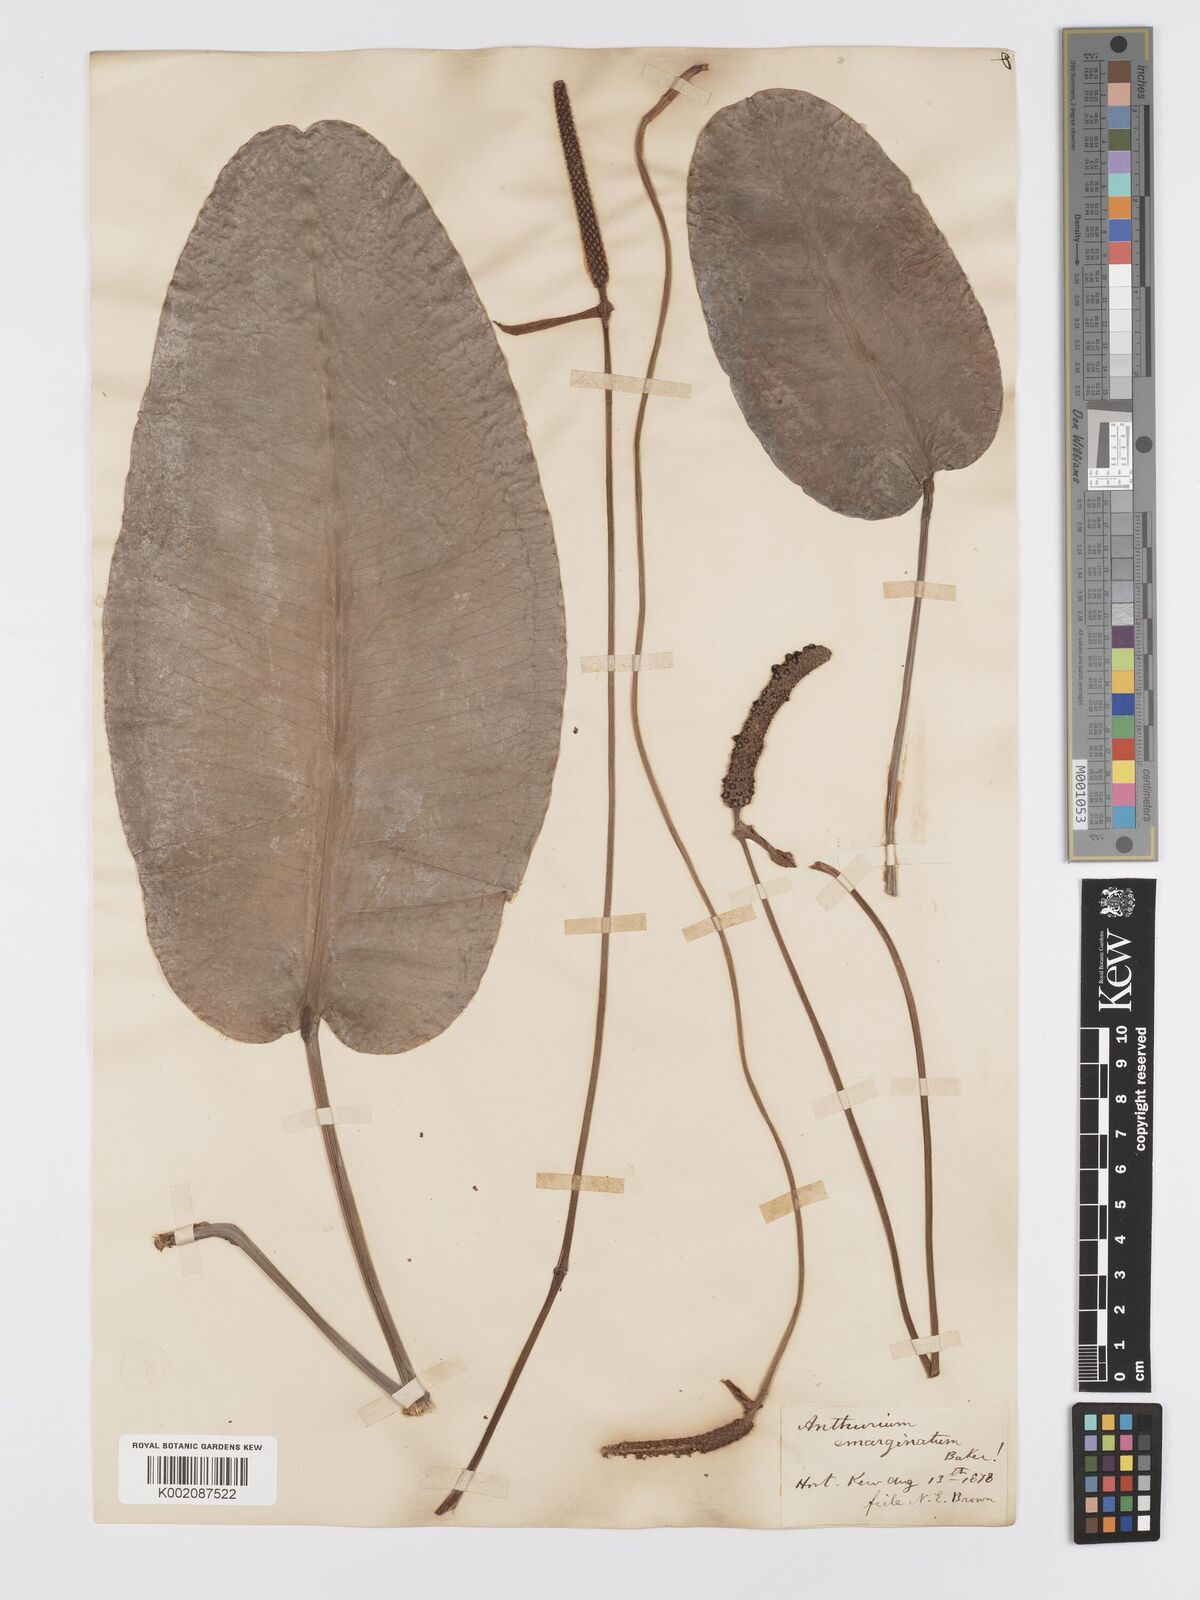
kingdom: Plantae
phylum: Tracheophyta
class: Liliopsida
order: Alismatales
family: Araceae
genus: Anthurium
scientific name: Anthurium emarginatum
